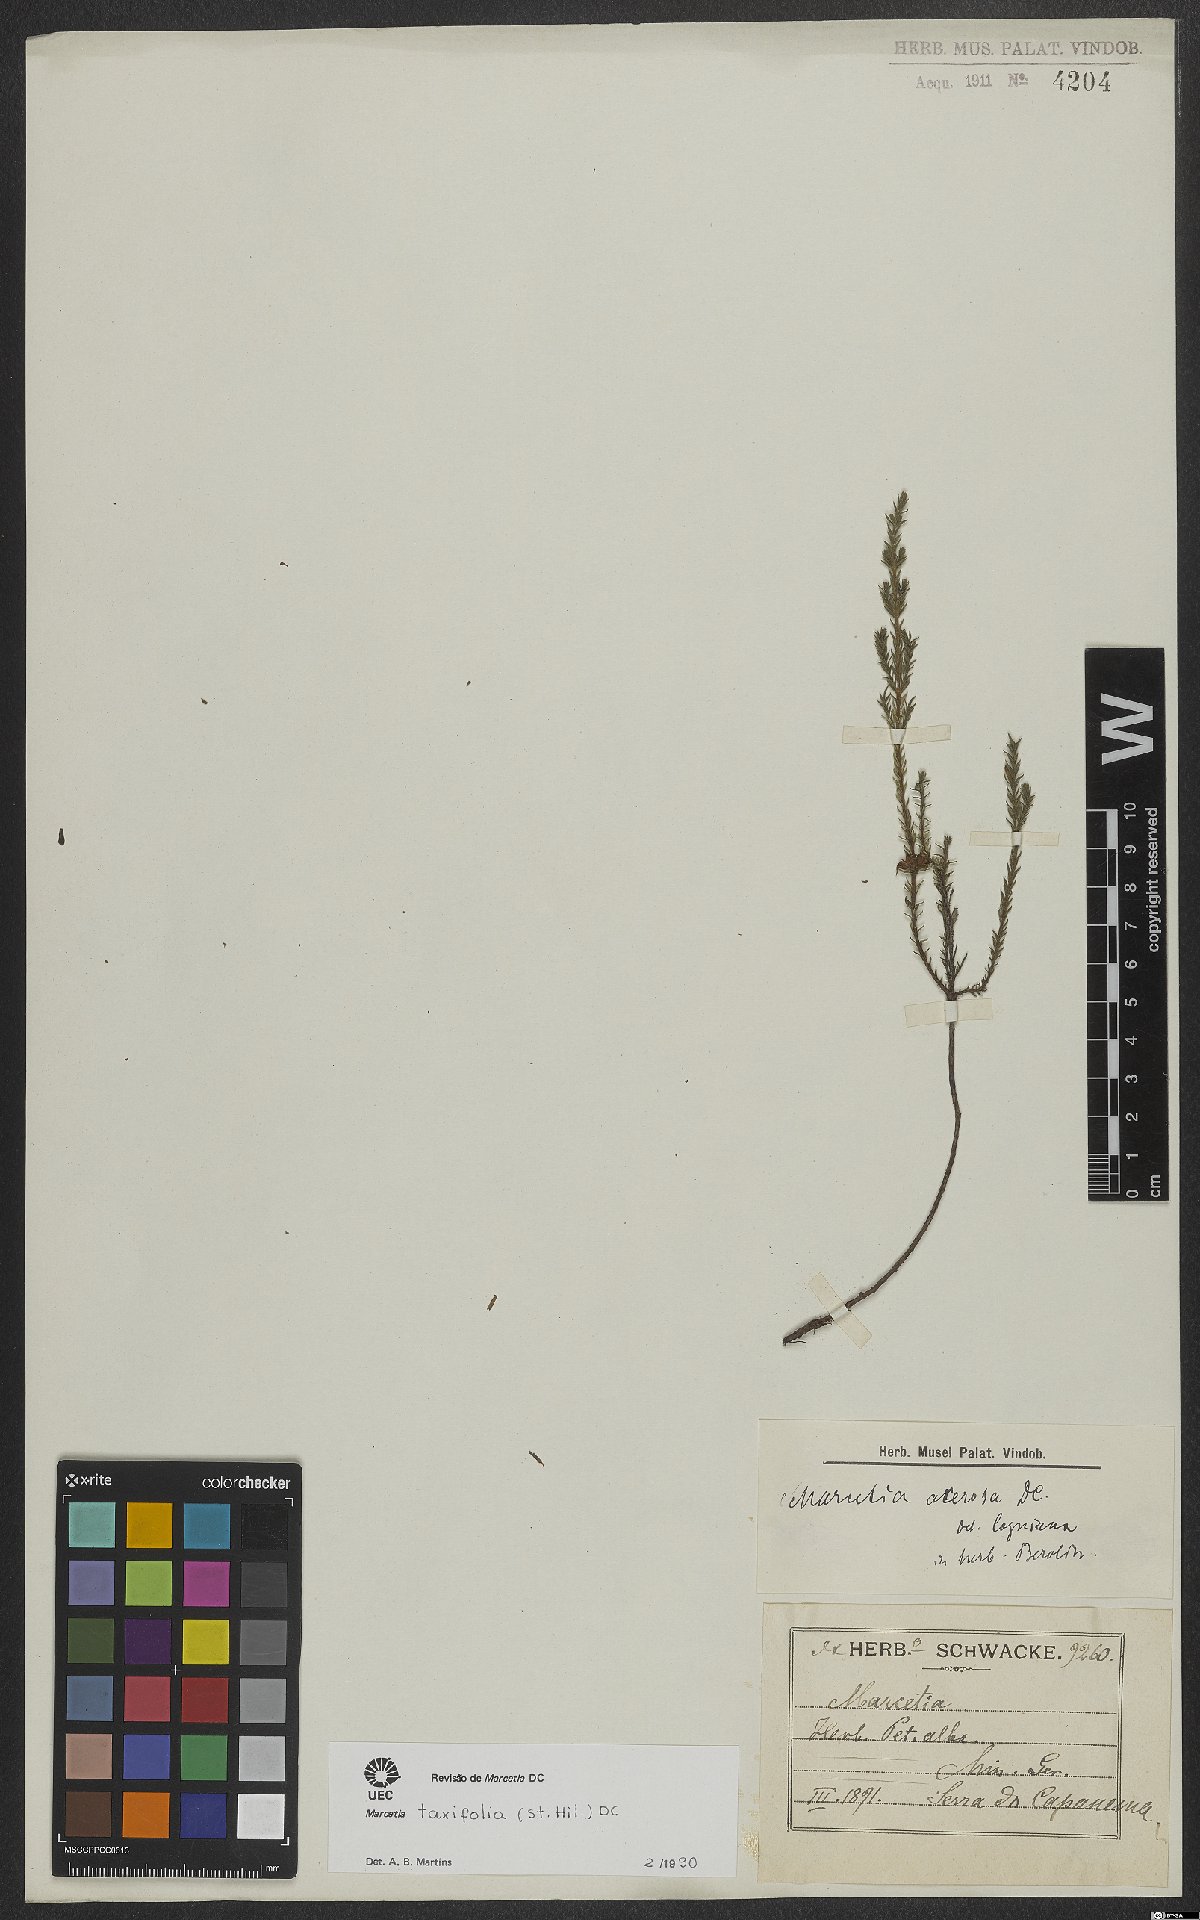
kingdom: Plantae
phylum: Tracheophyta
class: Magnoliopsida
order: Myrtales
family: Melastomataceae
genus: Marcetia
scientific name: Marcetia taxifolia
